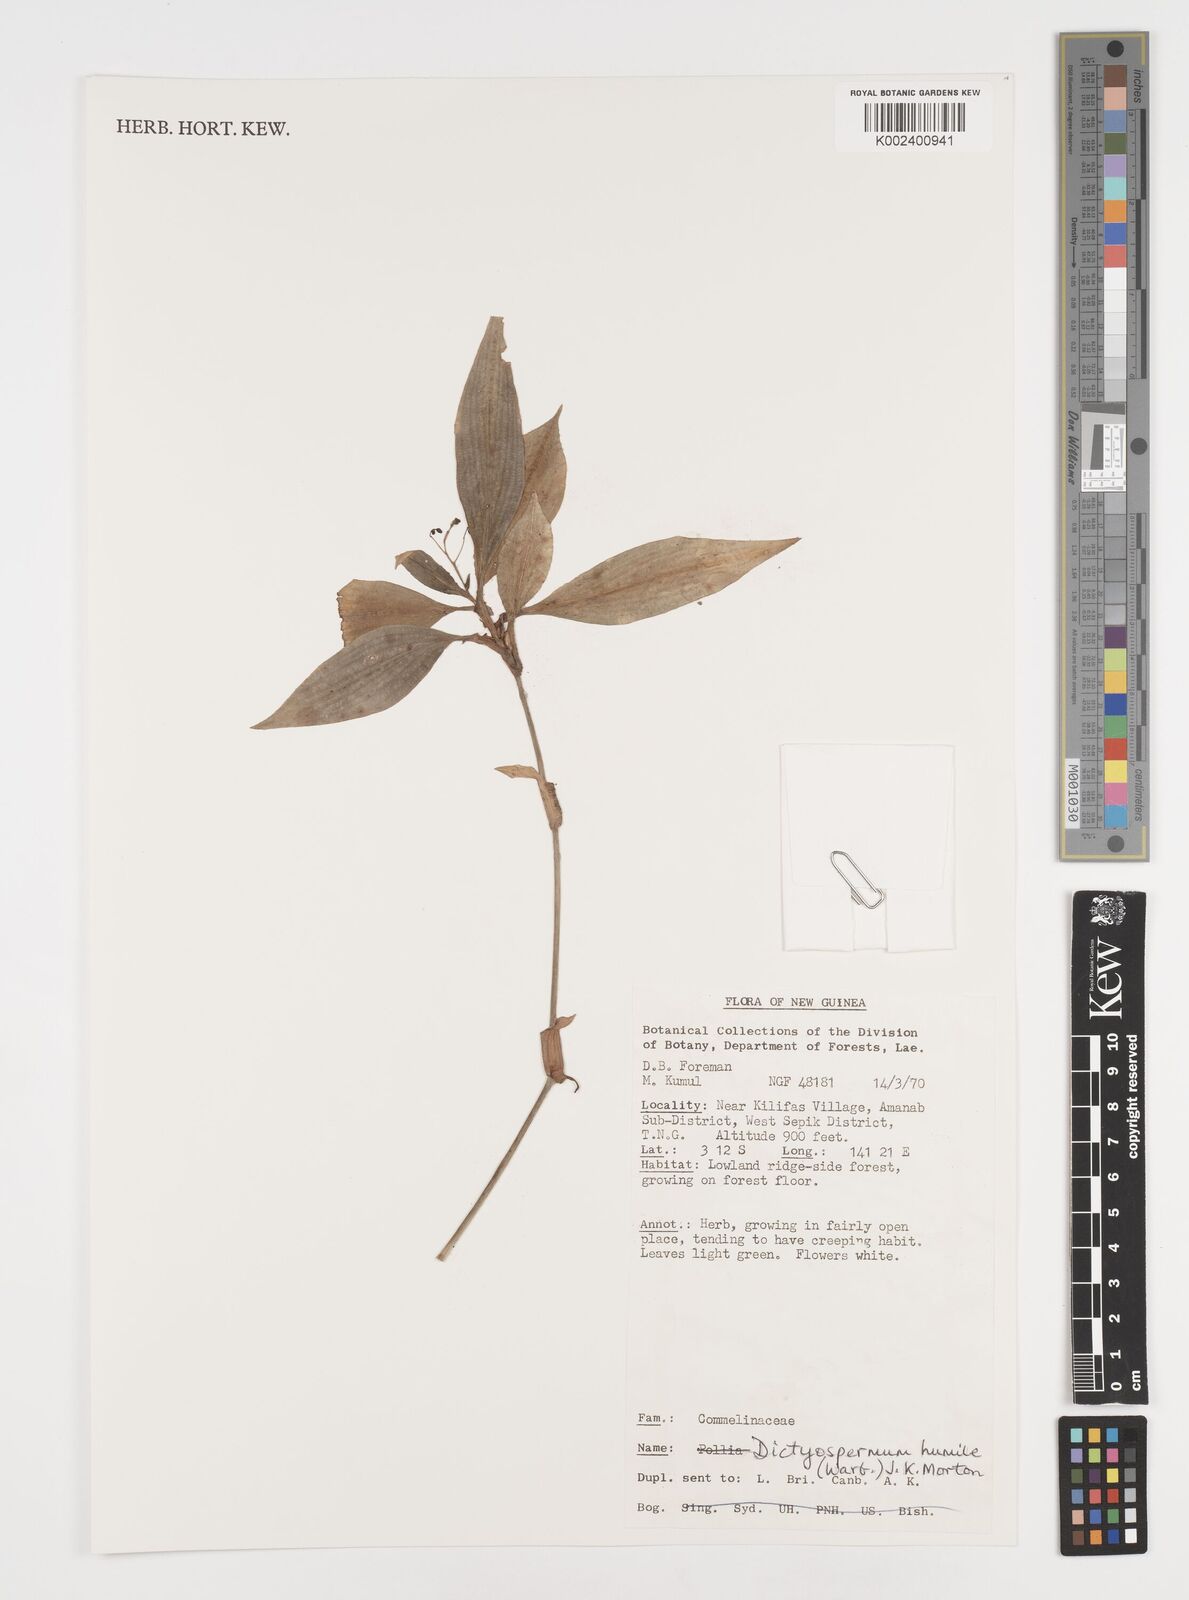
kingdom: Plantae
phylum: Tracheophyta
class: Liliopsida
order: Commelinales
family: Commelinaceae
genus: Dictyospermum
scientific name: Dictyospermum humile
